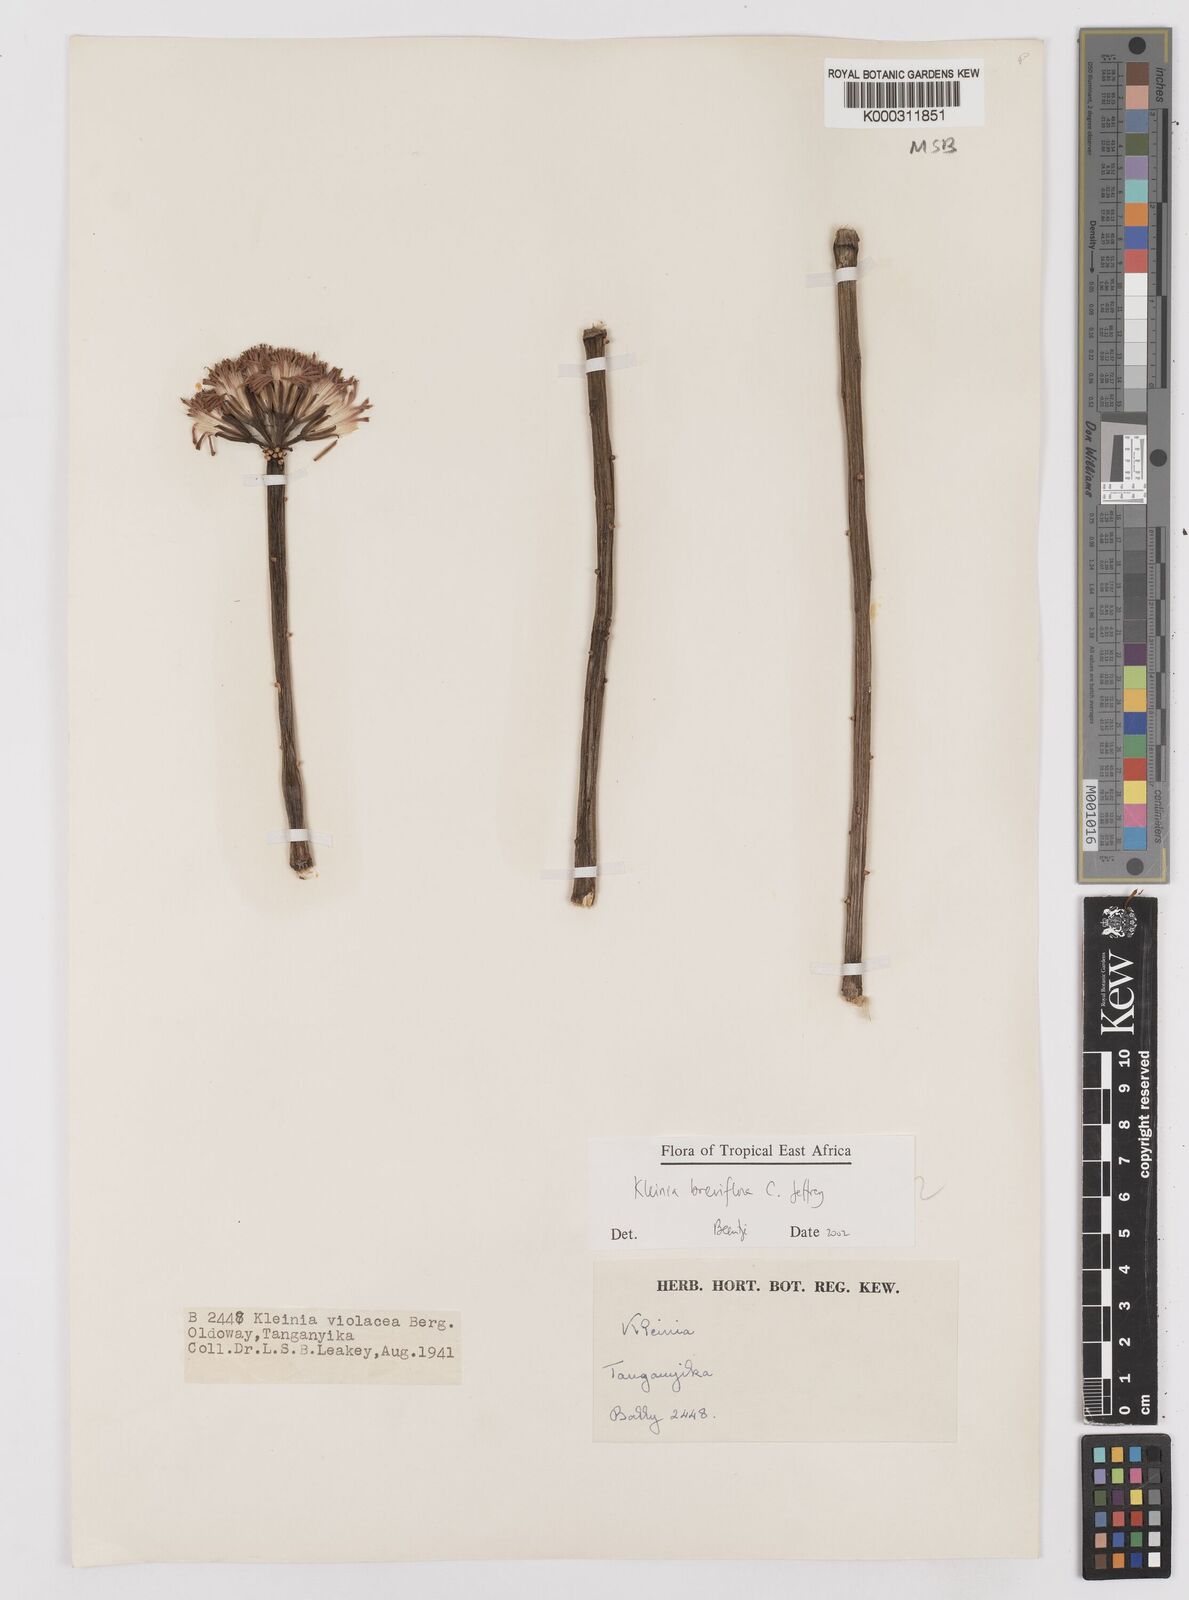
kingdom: Plantae
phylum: Tracheophyta
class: Magnoliopsida
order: Asterales
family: Asteraceae
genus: Kleinia
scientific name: Kleinia polycotoma
